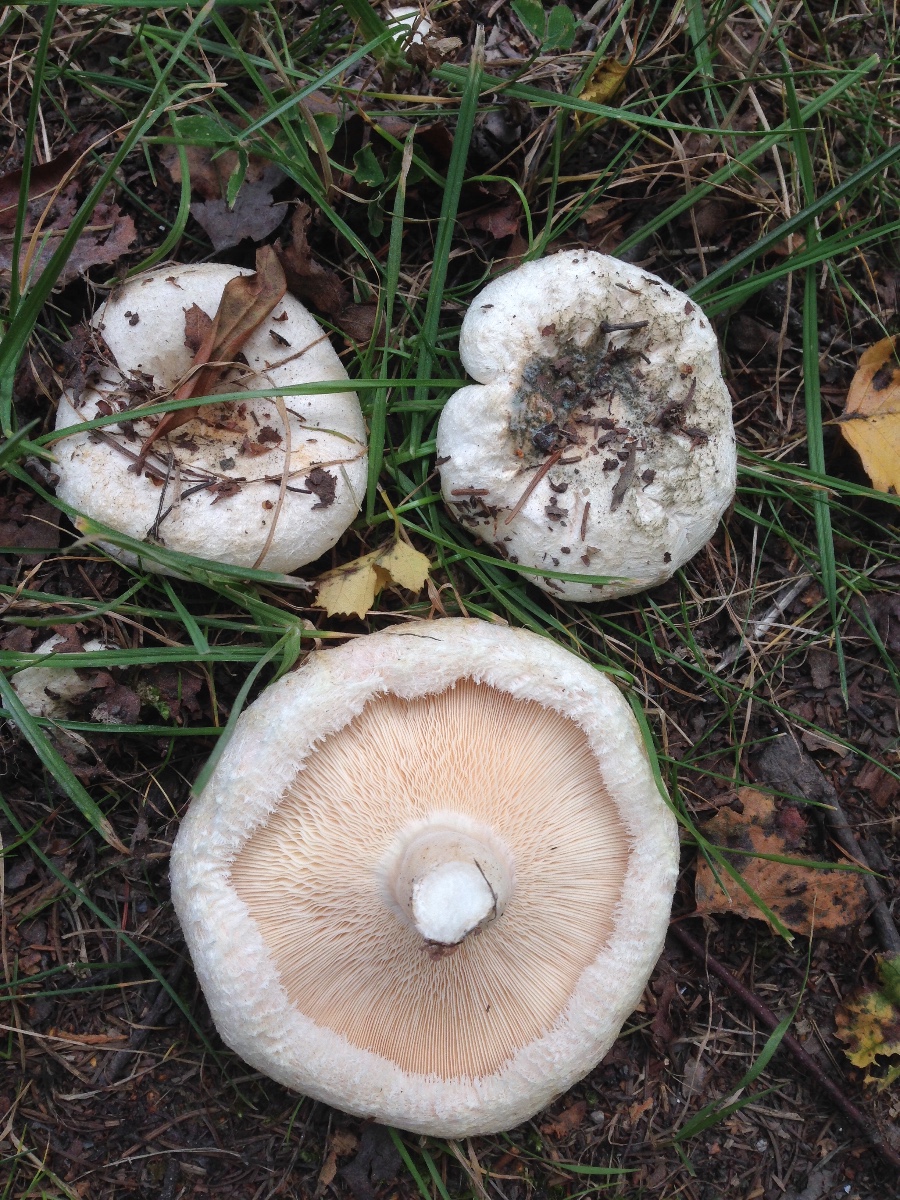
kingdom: Fungi
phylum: Basidiomycota
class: Agaricomycetes
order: Russulales
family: Russulaceae
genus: Lactarius
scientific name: Lactarius pubescens
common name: dunet mælkehat
